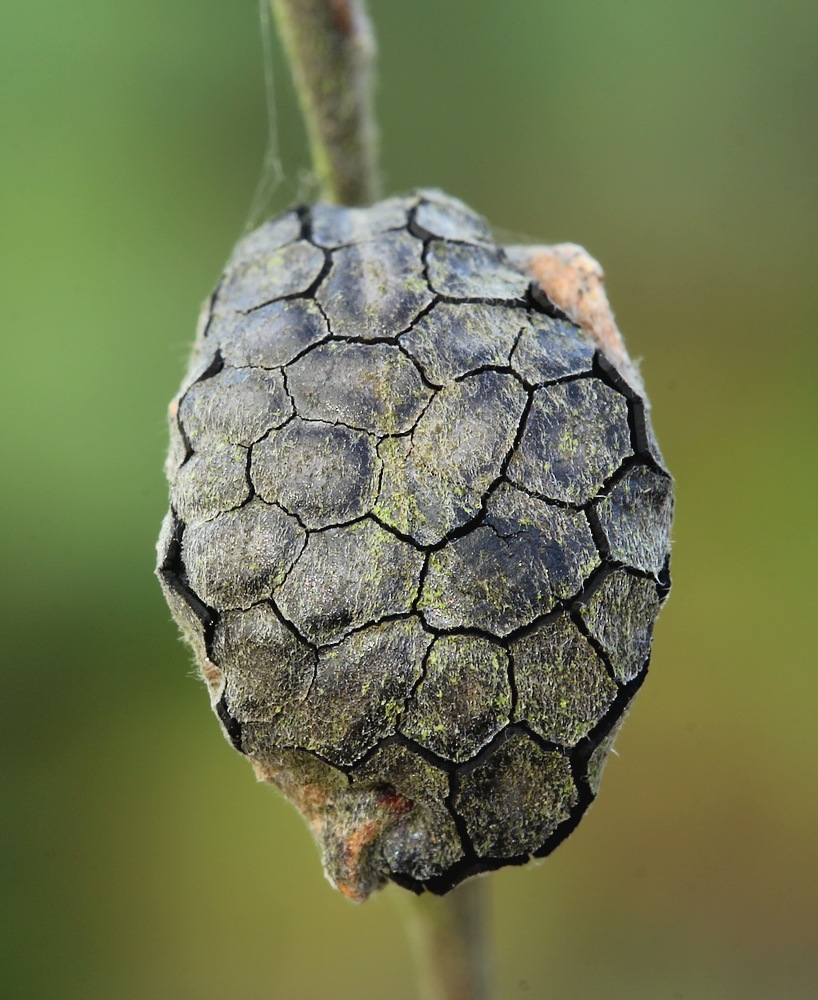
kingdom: Fungi
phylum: Ascomycota
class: Leotiomycetes
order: Rhytismatales
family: Rhytismataceae
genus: Rhytisma
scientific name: Rhytisma salicinum
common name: pile-rynkeplet
